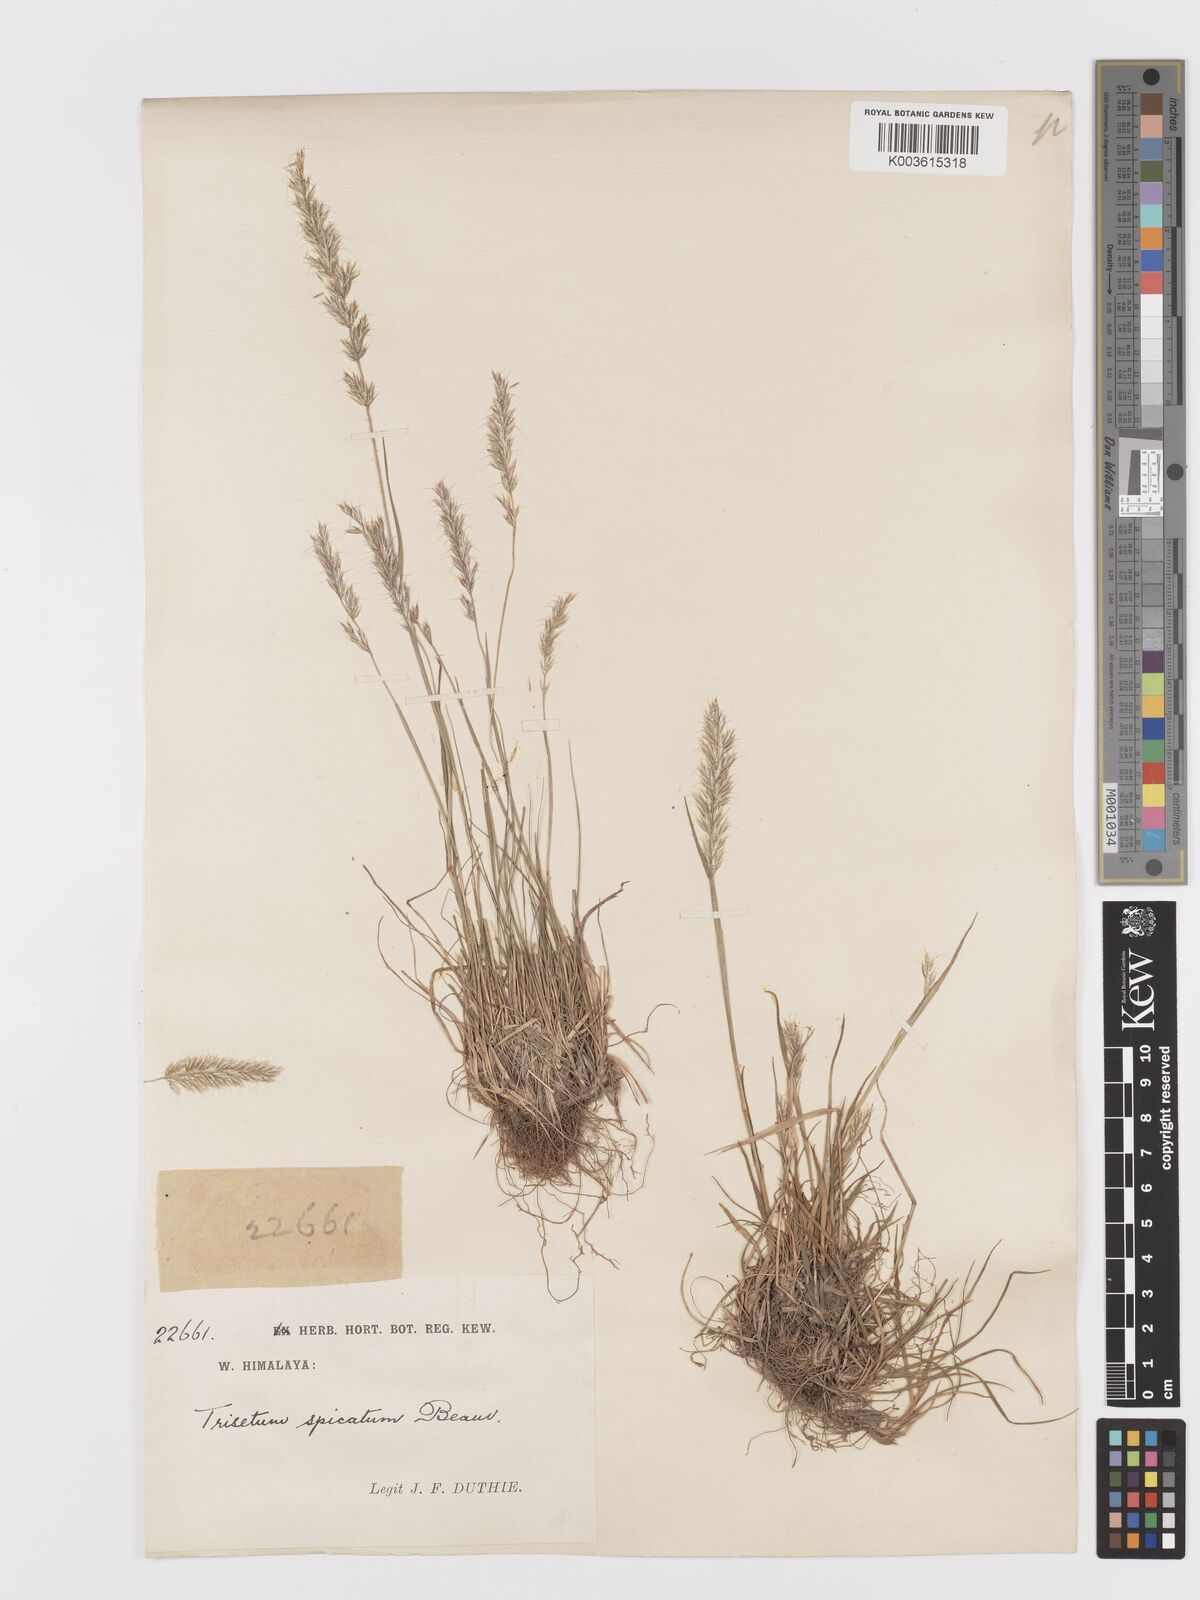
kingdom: Plantae
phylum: Tracheophyta
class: Liliopsida
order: Poales
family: Poaceae
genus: Koeleria
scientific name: Koeleria spicata
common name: Mountain trisetum
